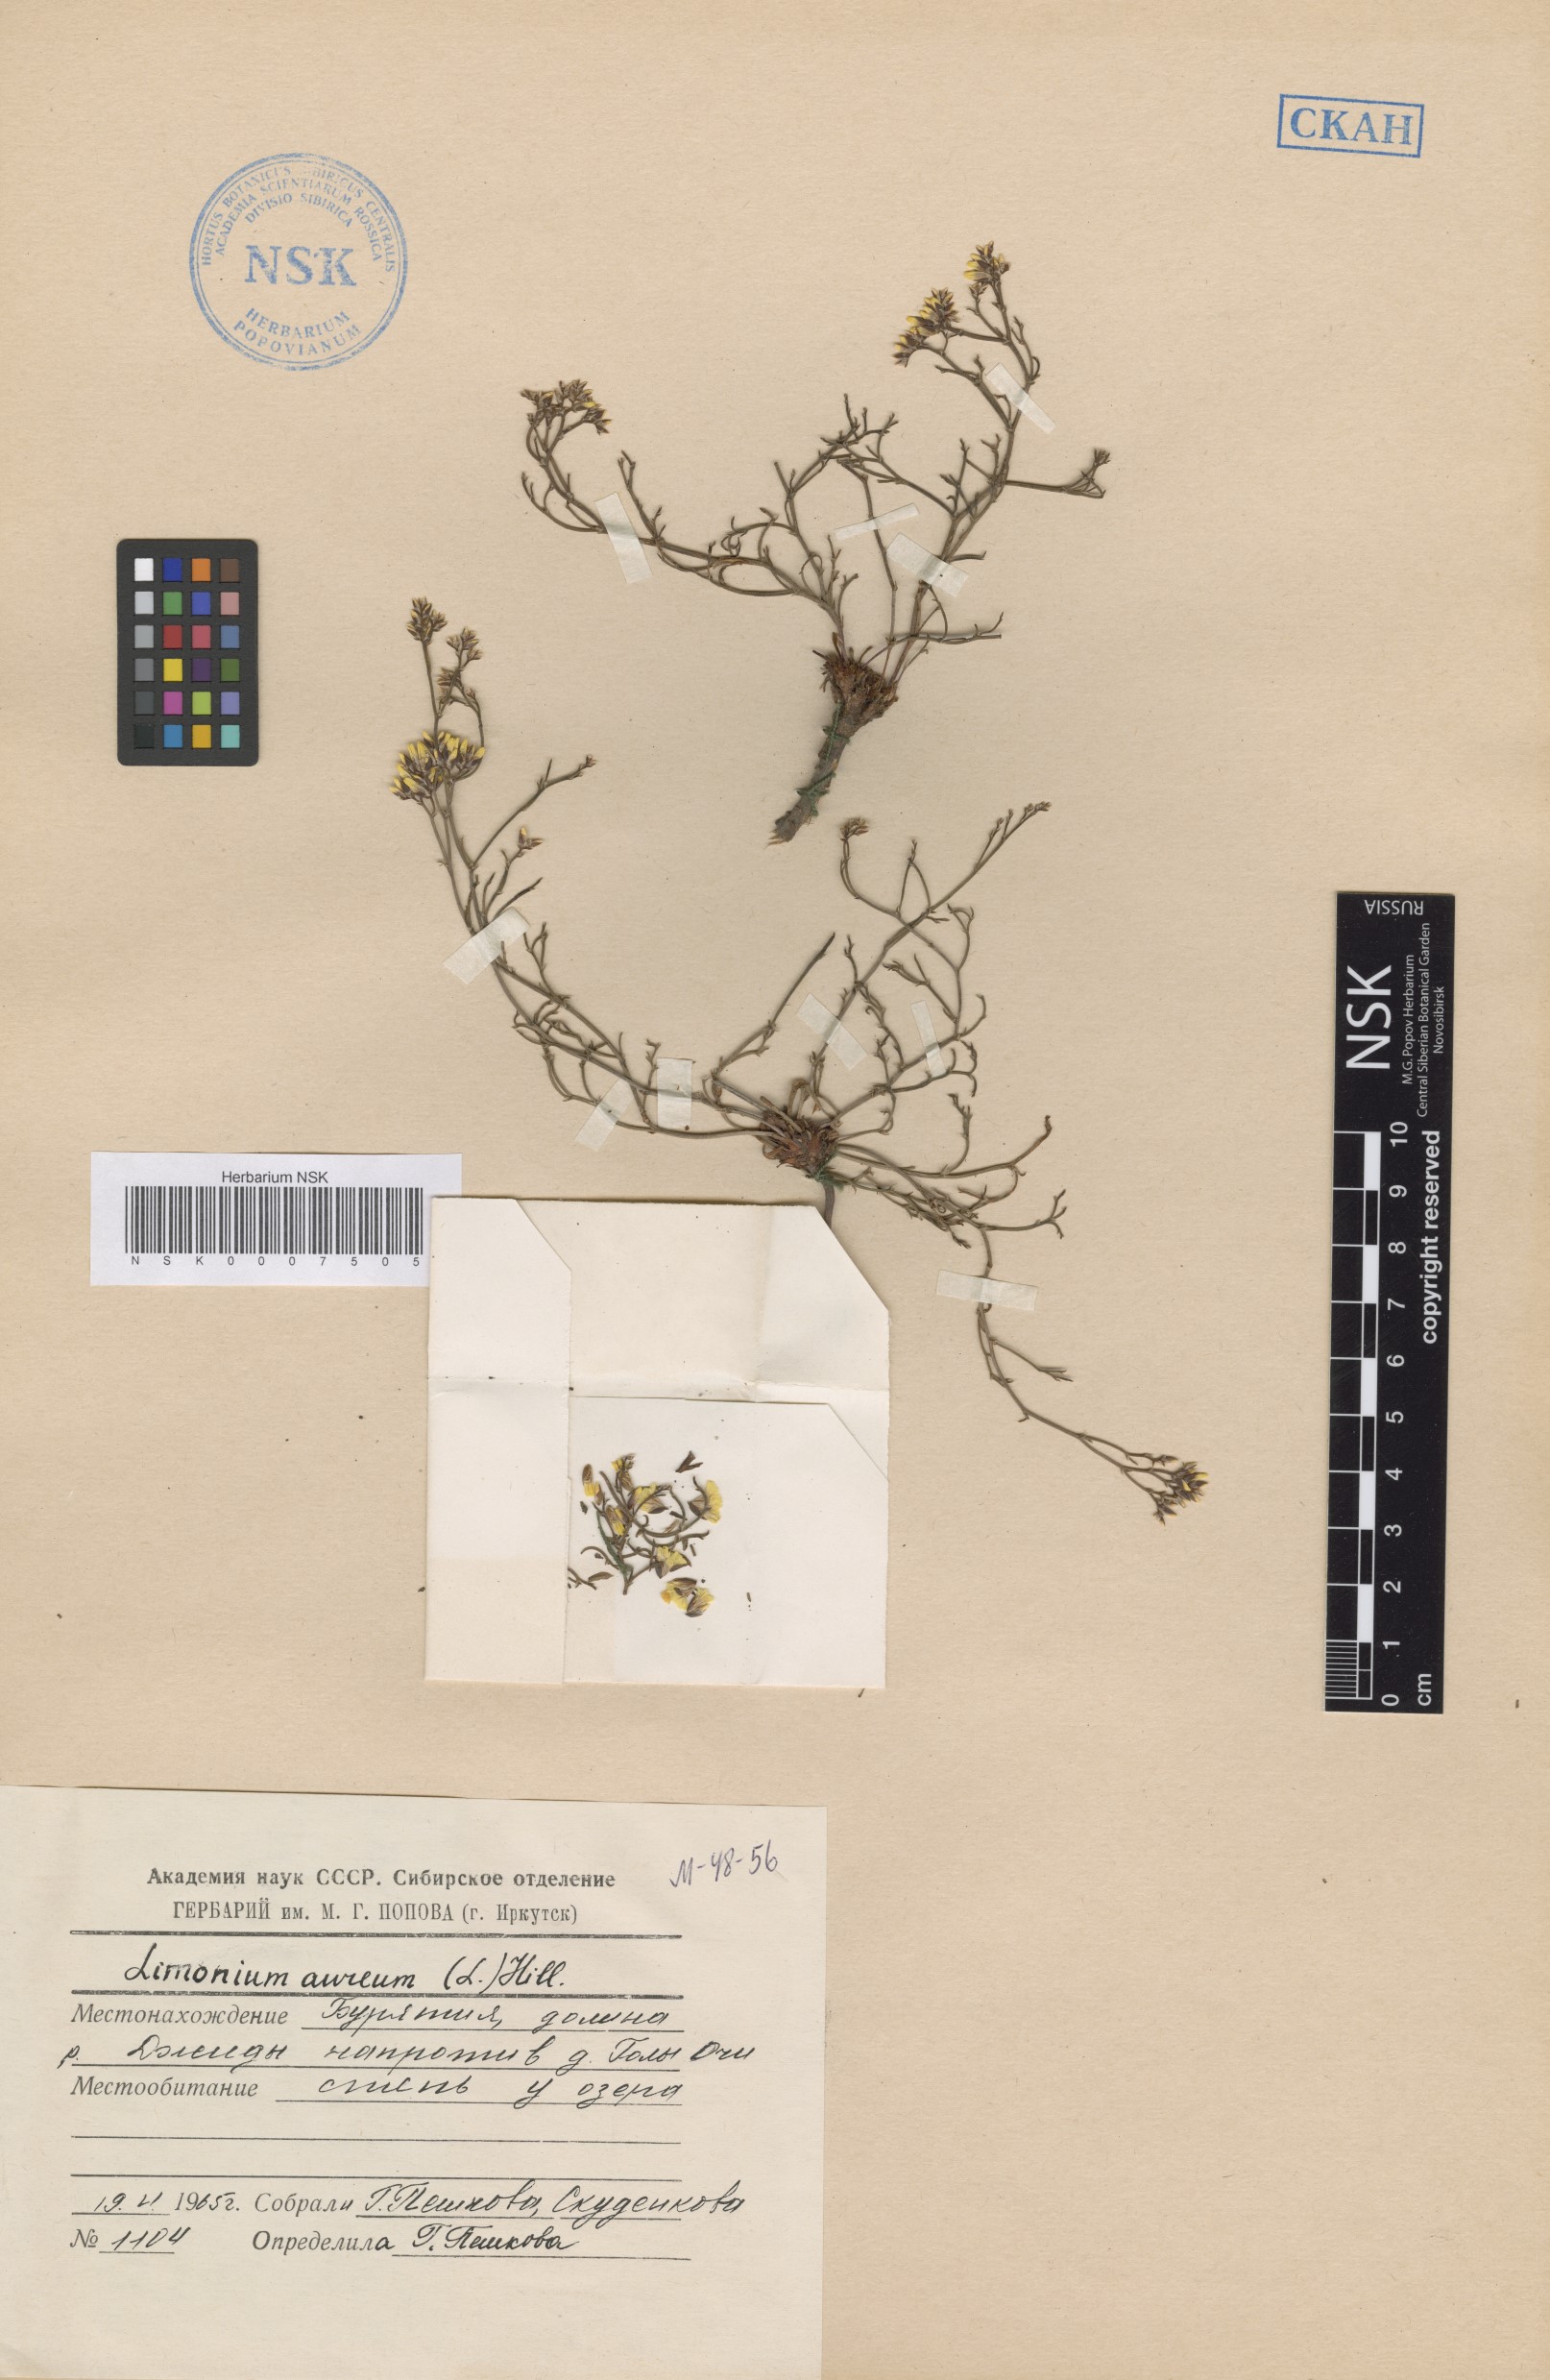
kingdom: Plantae
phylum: Tracheophyta
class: Magnoliopsida
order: Caryophyllales
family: Plumbaginaceae
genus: Limonium
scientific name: Limonium aureum
